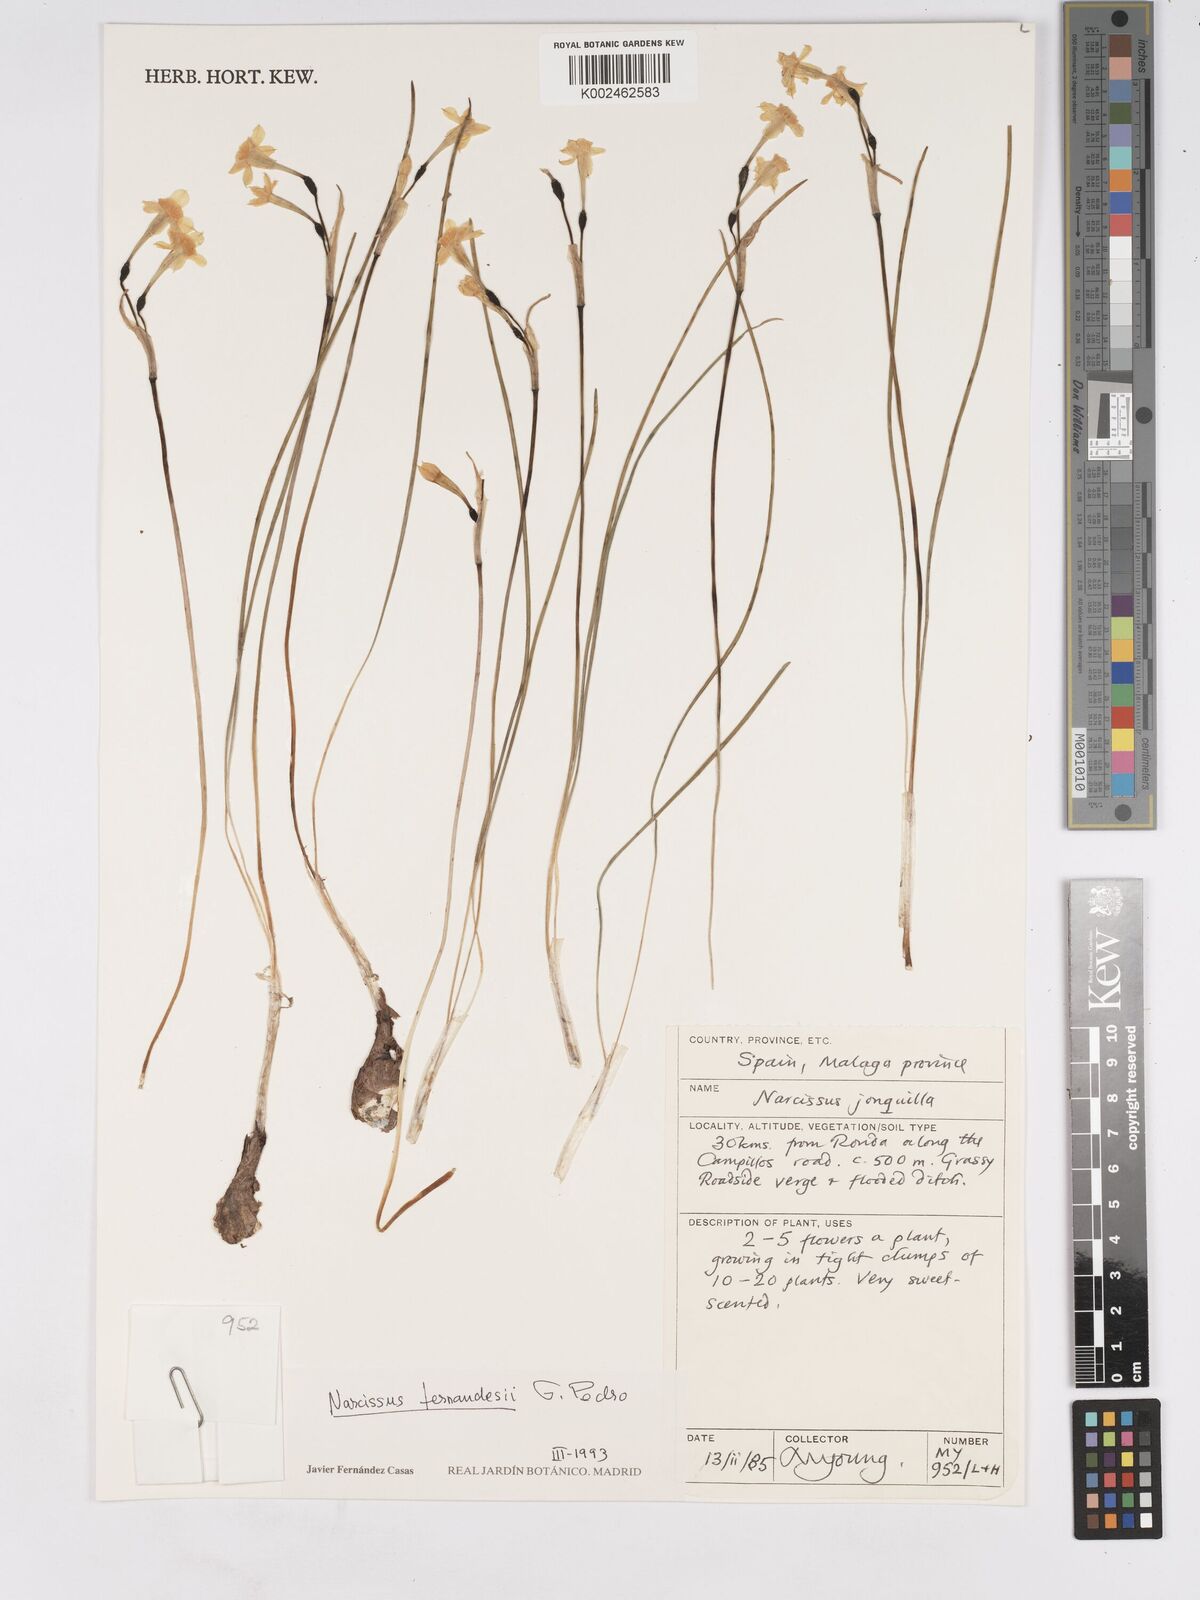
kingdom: Plantae
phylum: Tracheophyta
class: Liliopsida
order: Asparagales
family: Amaryllidaceae
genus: Narcissus
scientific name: Narcissus flavus
